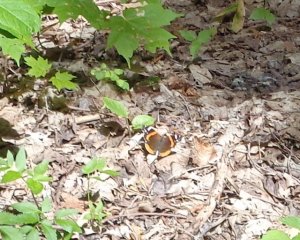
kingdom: Animalia
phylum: Arthropoda
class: Insecta
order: Lepidoptera
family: Nymphalidae
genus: Vanessa
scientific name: Vanessa atalanta
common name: Red Admiral
